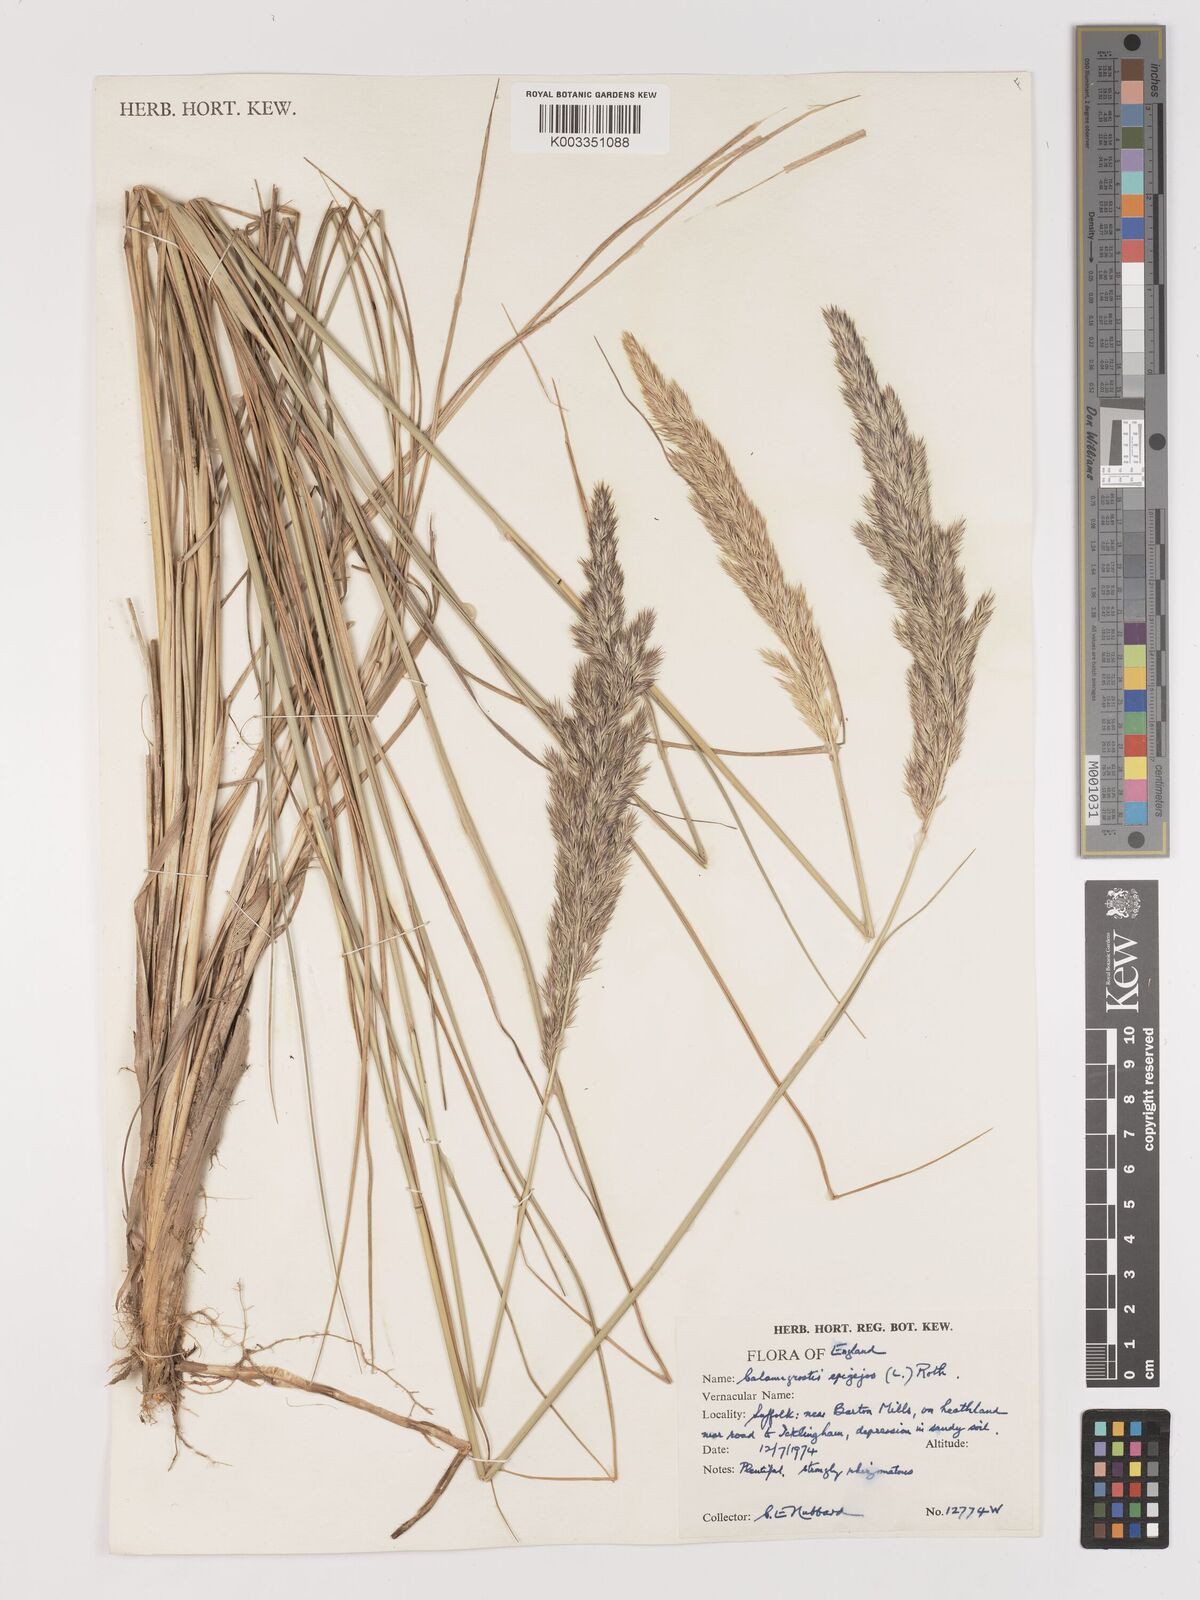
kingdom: Plantae
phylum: Tracheophyta
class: Liliopsida
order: Poales
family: Poaceae
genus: Calamagrostis
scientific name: Calamagrostis
